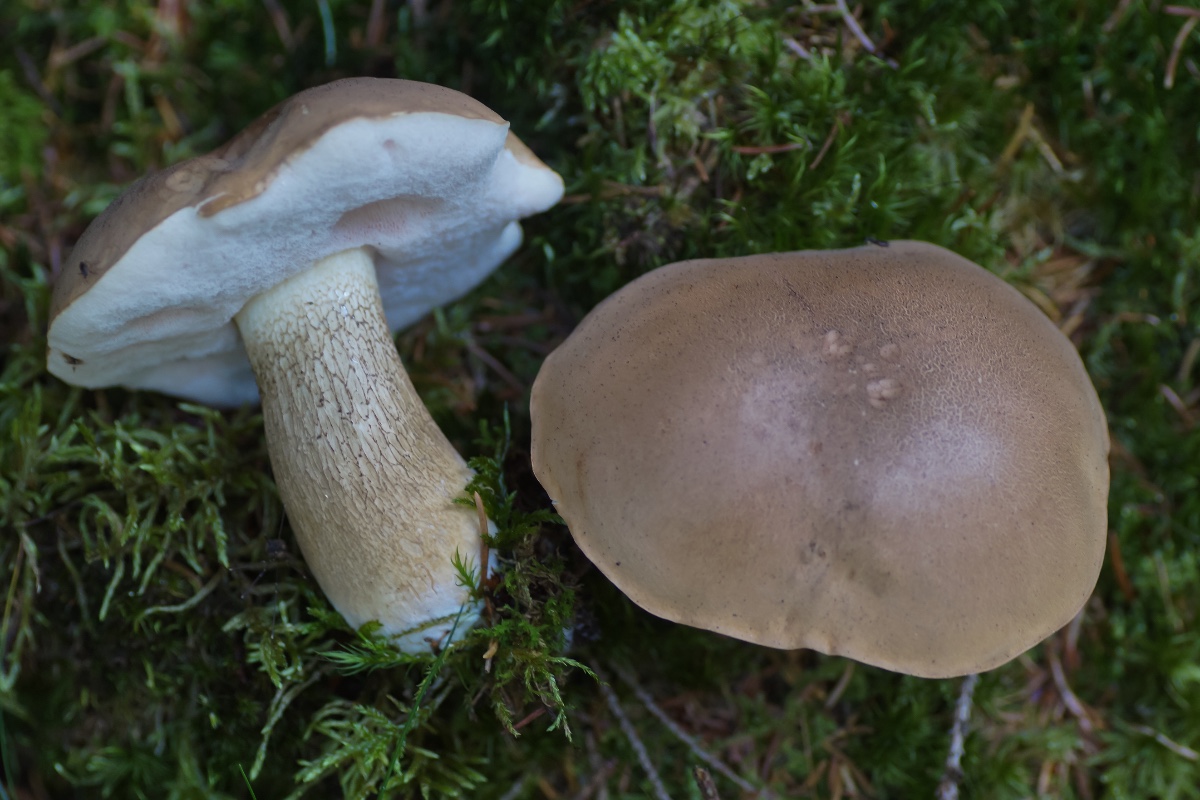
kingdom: Fungi
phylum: Basidiomycota
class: Agaricomycetes
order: Boletales
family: Boletaceae
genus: Tylopilus
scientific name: Tylopilus felleus
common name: galderørhat
